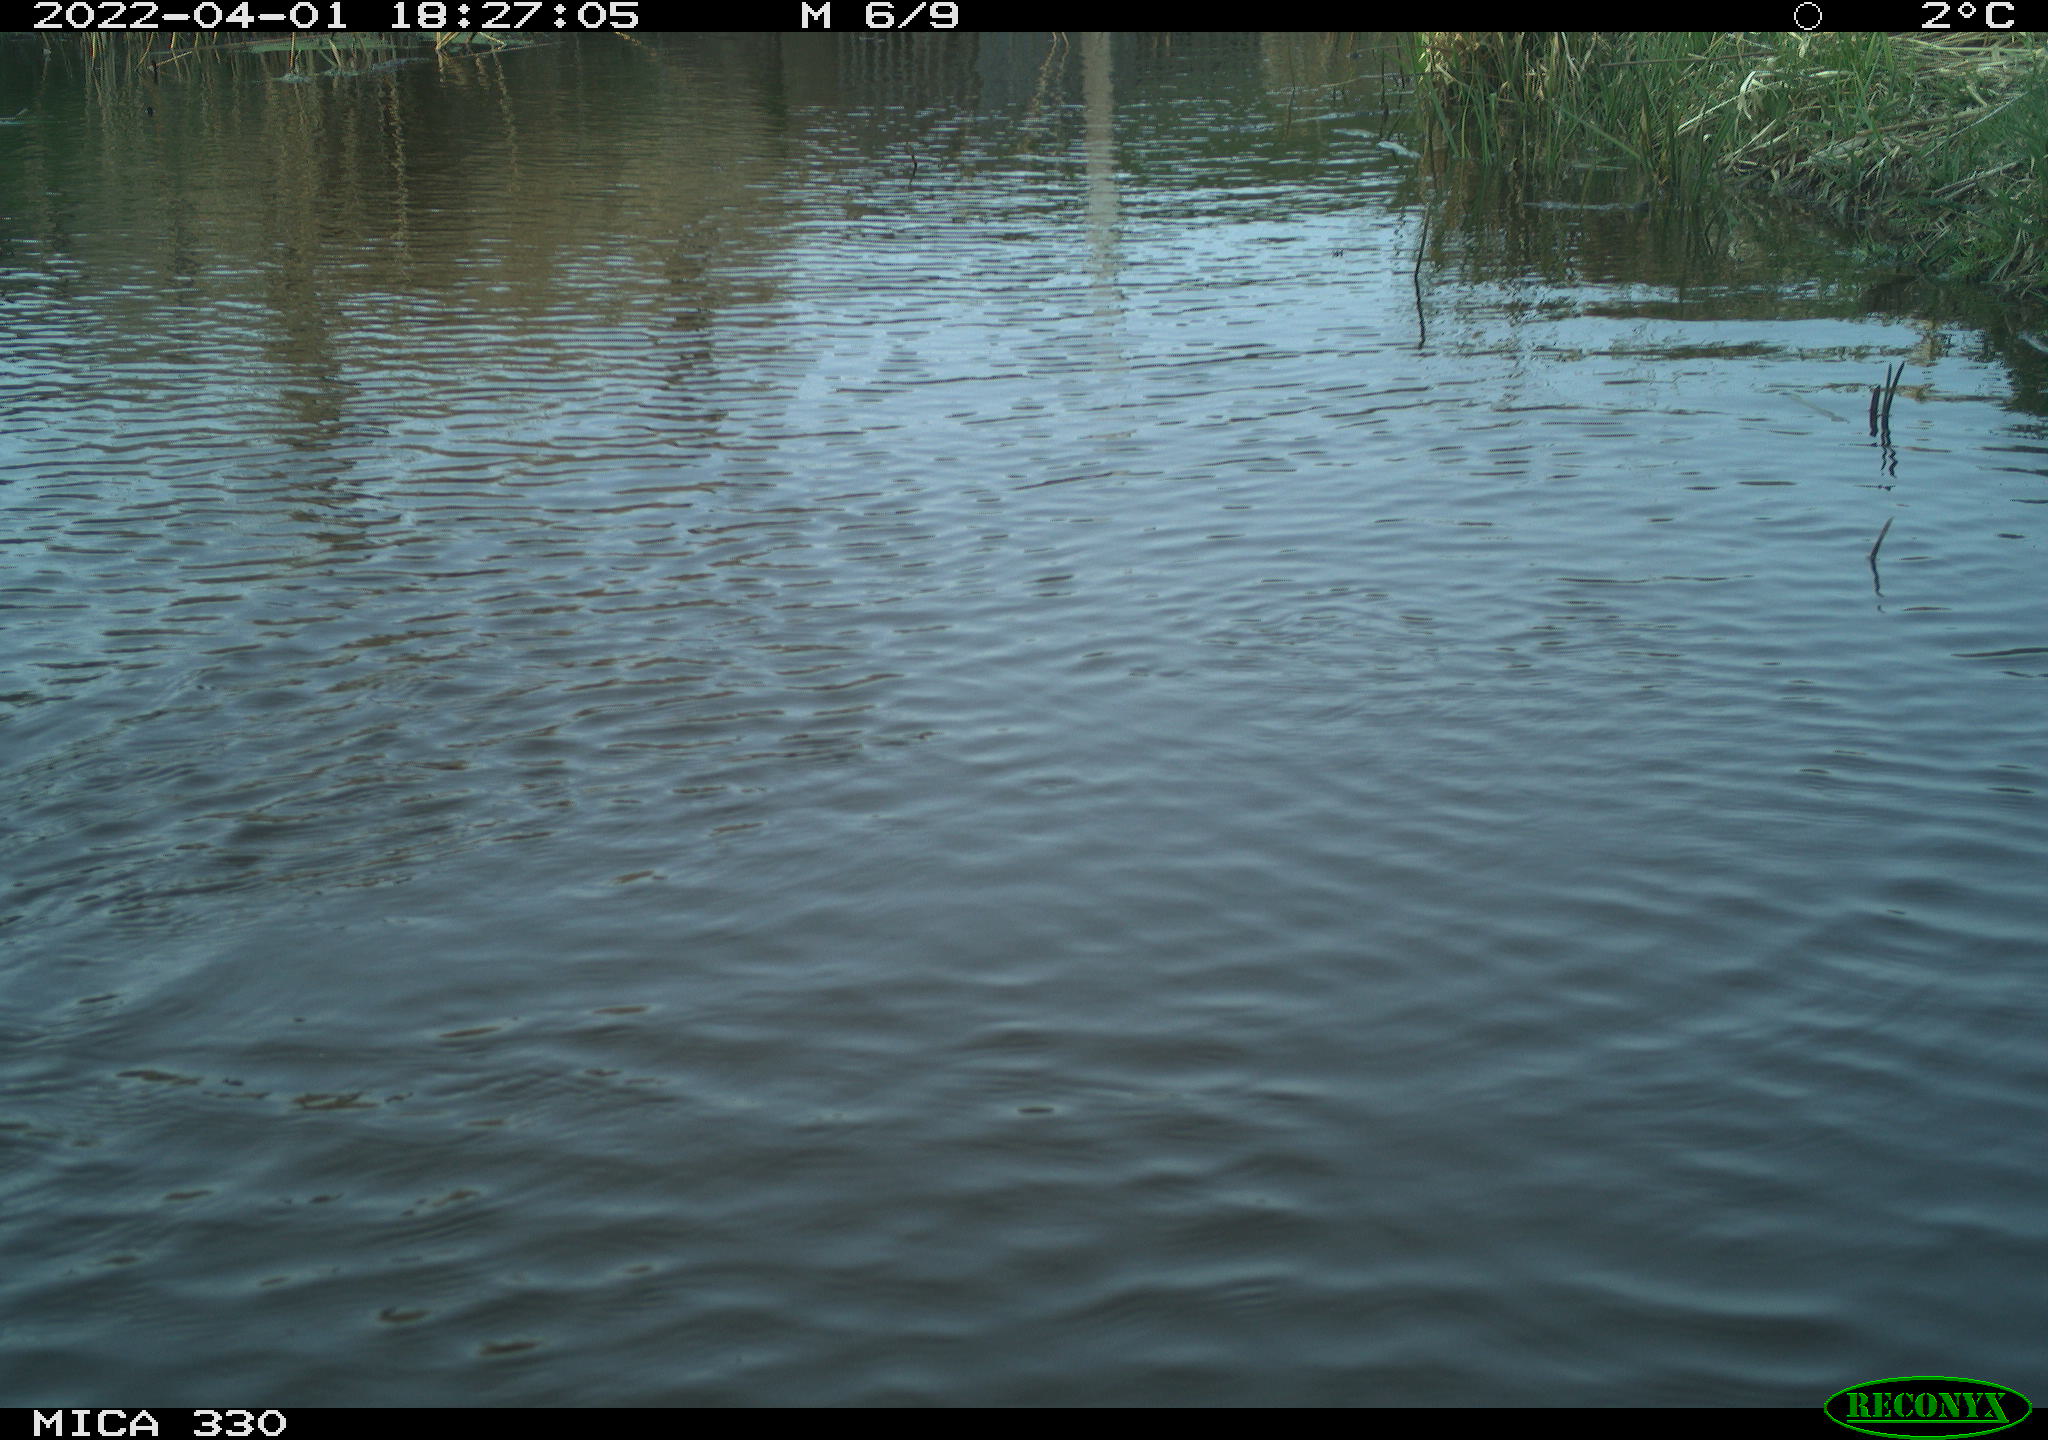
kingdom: Animalia
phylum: Chordata
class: Aves
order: Anseriformes
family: Anatidae
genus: Anas
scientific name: Anas platyrhynchos
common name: Mallard
